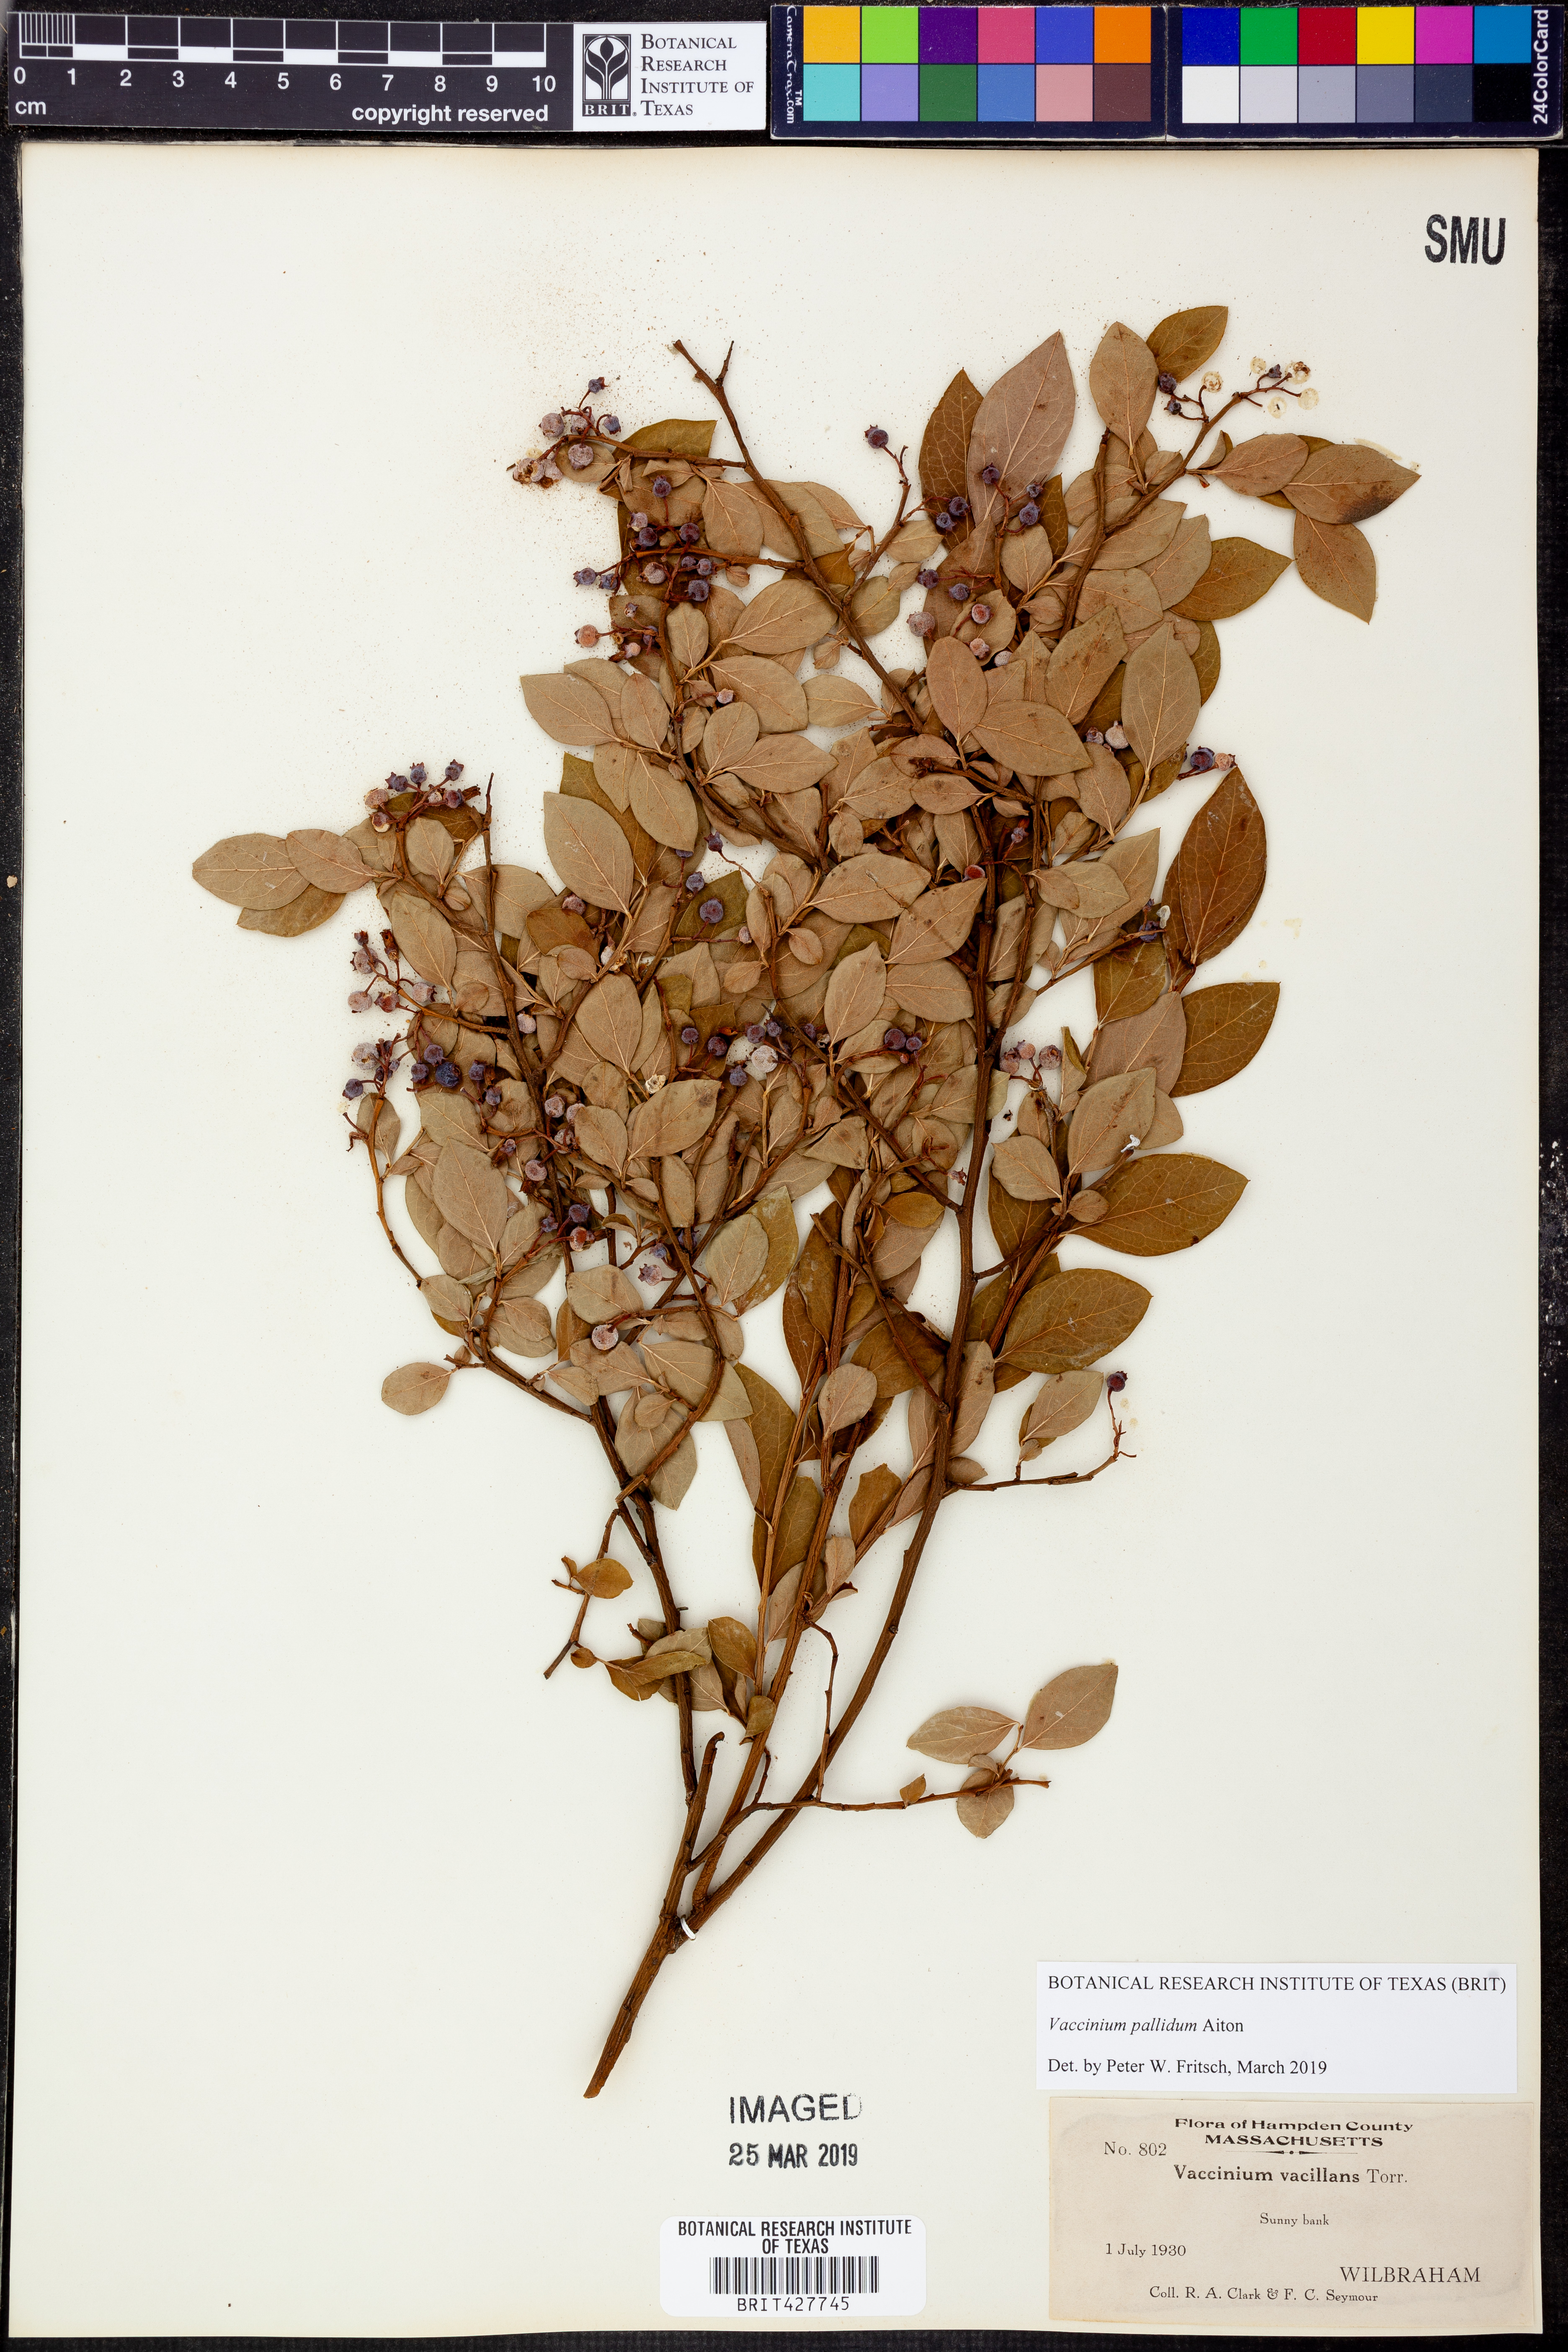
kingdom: Plantae
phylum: Tracheophyta
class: Magnoliopsida
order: Ericales
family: Ericaceae
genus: Vaccinium
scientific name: Vaccinium pallidum
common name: Blue ridge blueberry
